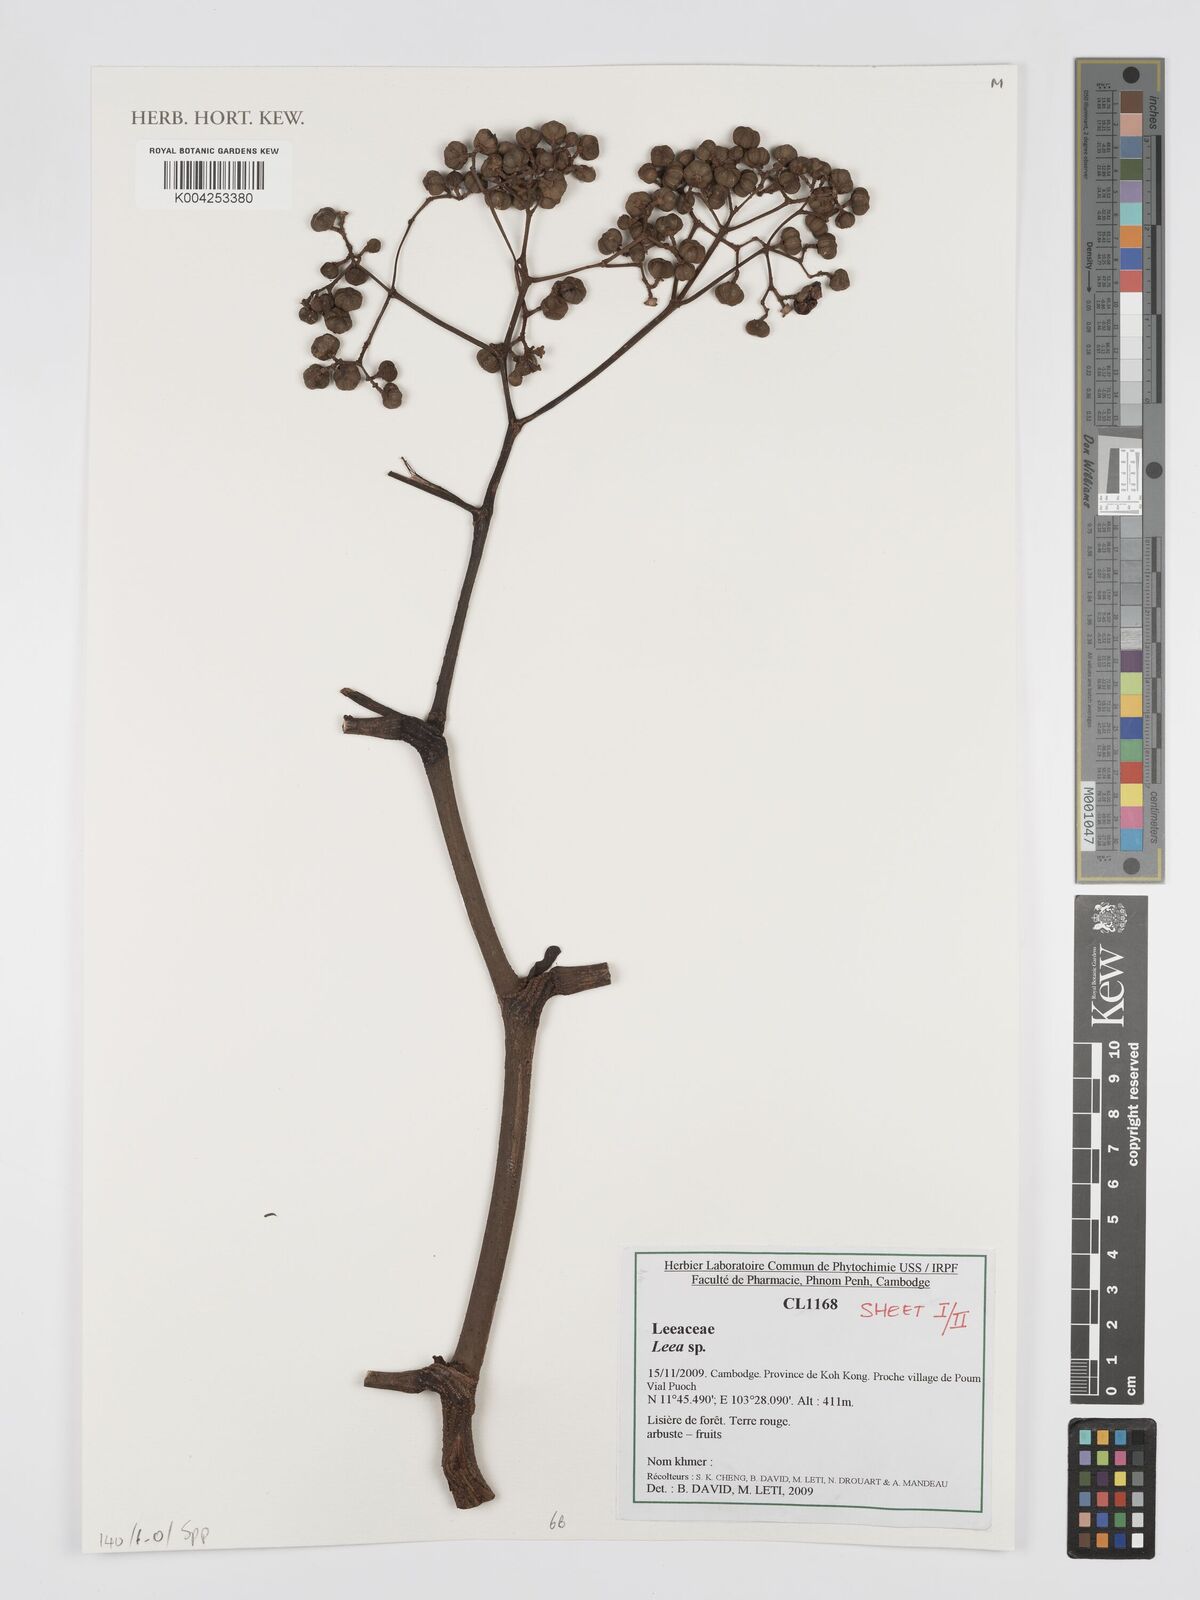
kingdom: Plantae
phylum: Tracheophyta
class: Magnoliopsida
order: Vitales
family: Vitaceae
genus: Leea
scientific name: Leea
